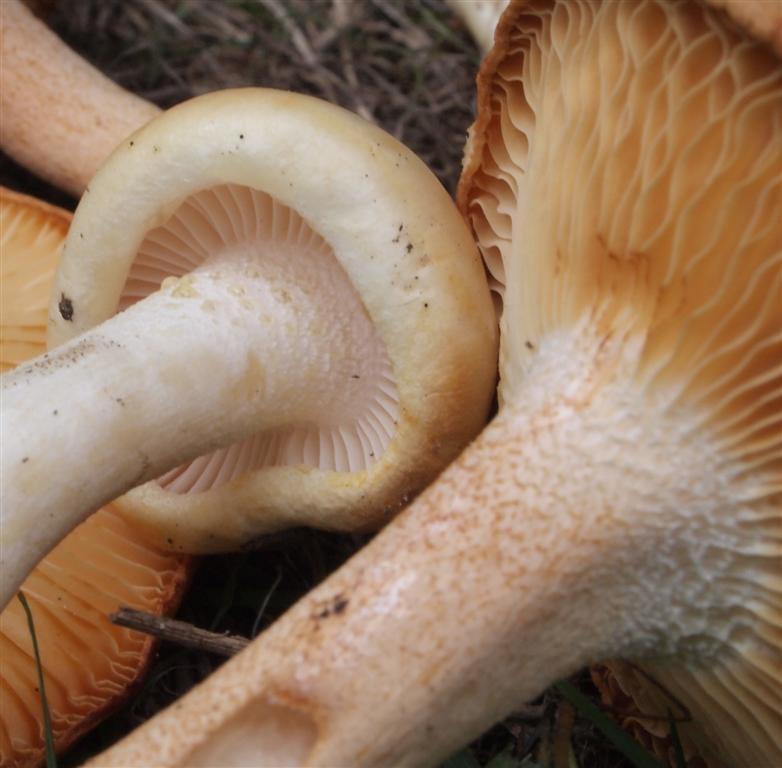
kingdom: Fungi
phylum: Basidiomycota
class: Agaricomycetes
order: Agaricales
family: Hygrophoraceae
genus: Hygrophorus
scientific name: Hygrophorus discoxanthus
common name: ildelugtende sneglehat
